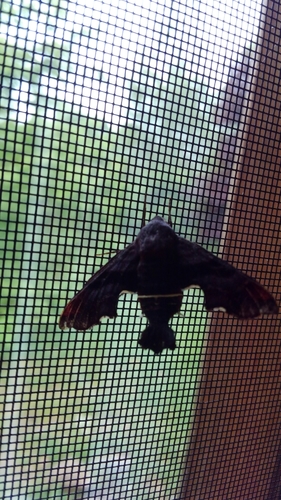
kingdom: Animalia
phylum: Arthropoda
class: Insecta
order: Lepidoptera
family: Sphingidae
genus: Amphion
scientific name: Amphion floridensis
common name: Nessus sphinx
